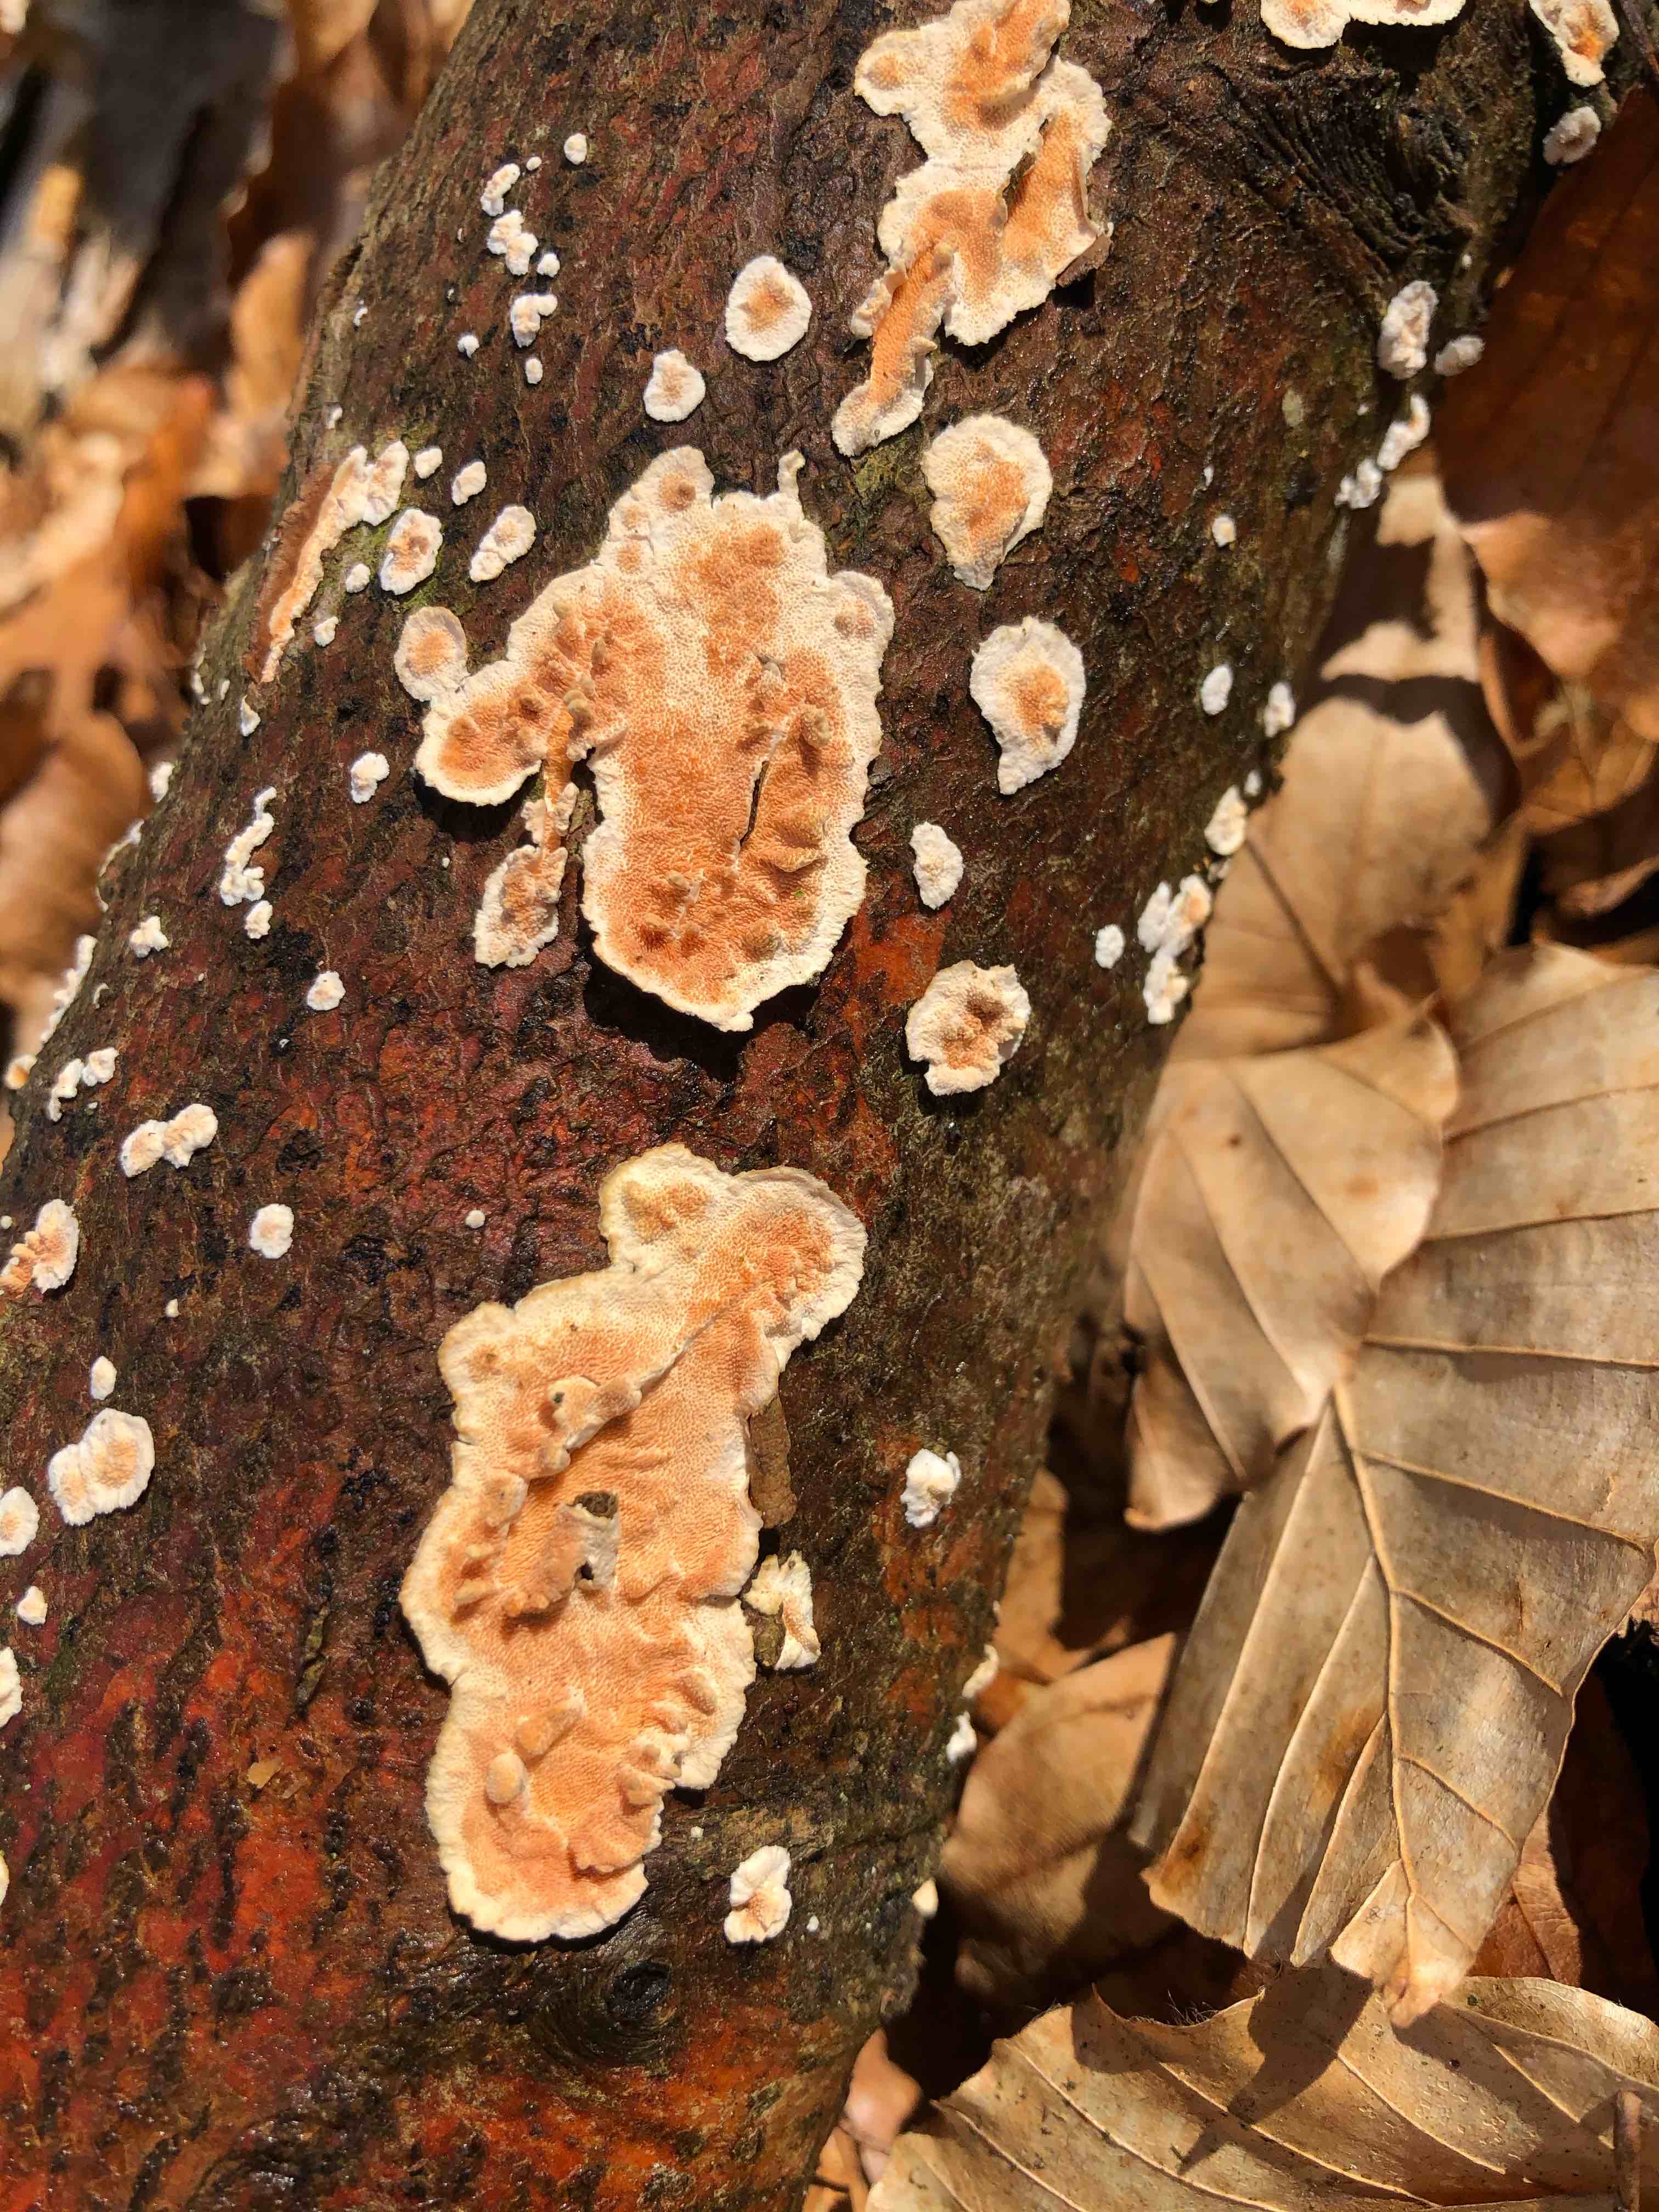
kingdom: Fungi
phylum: Basidiomycota
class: Agaricomycetes
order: Polyporales
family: Steccherinaceae
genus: Steccherinum
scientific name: Steccherinum ochraceum
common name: almindelig skønpig
